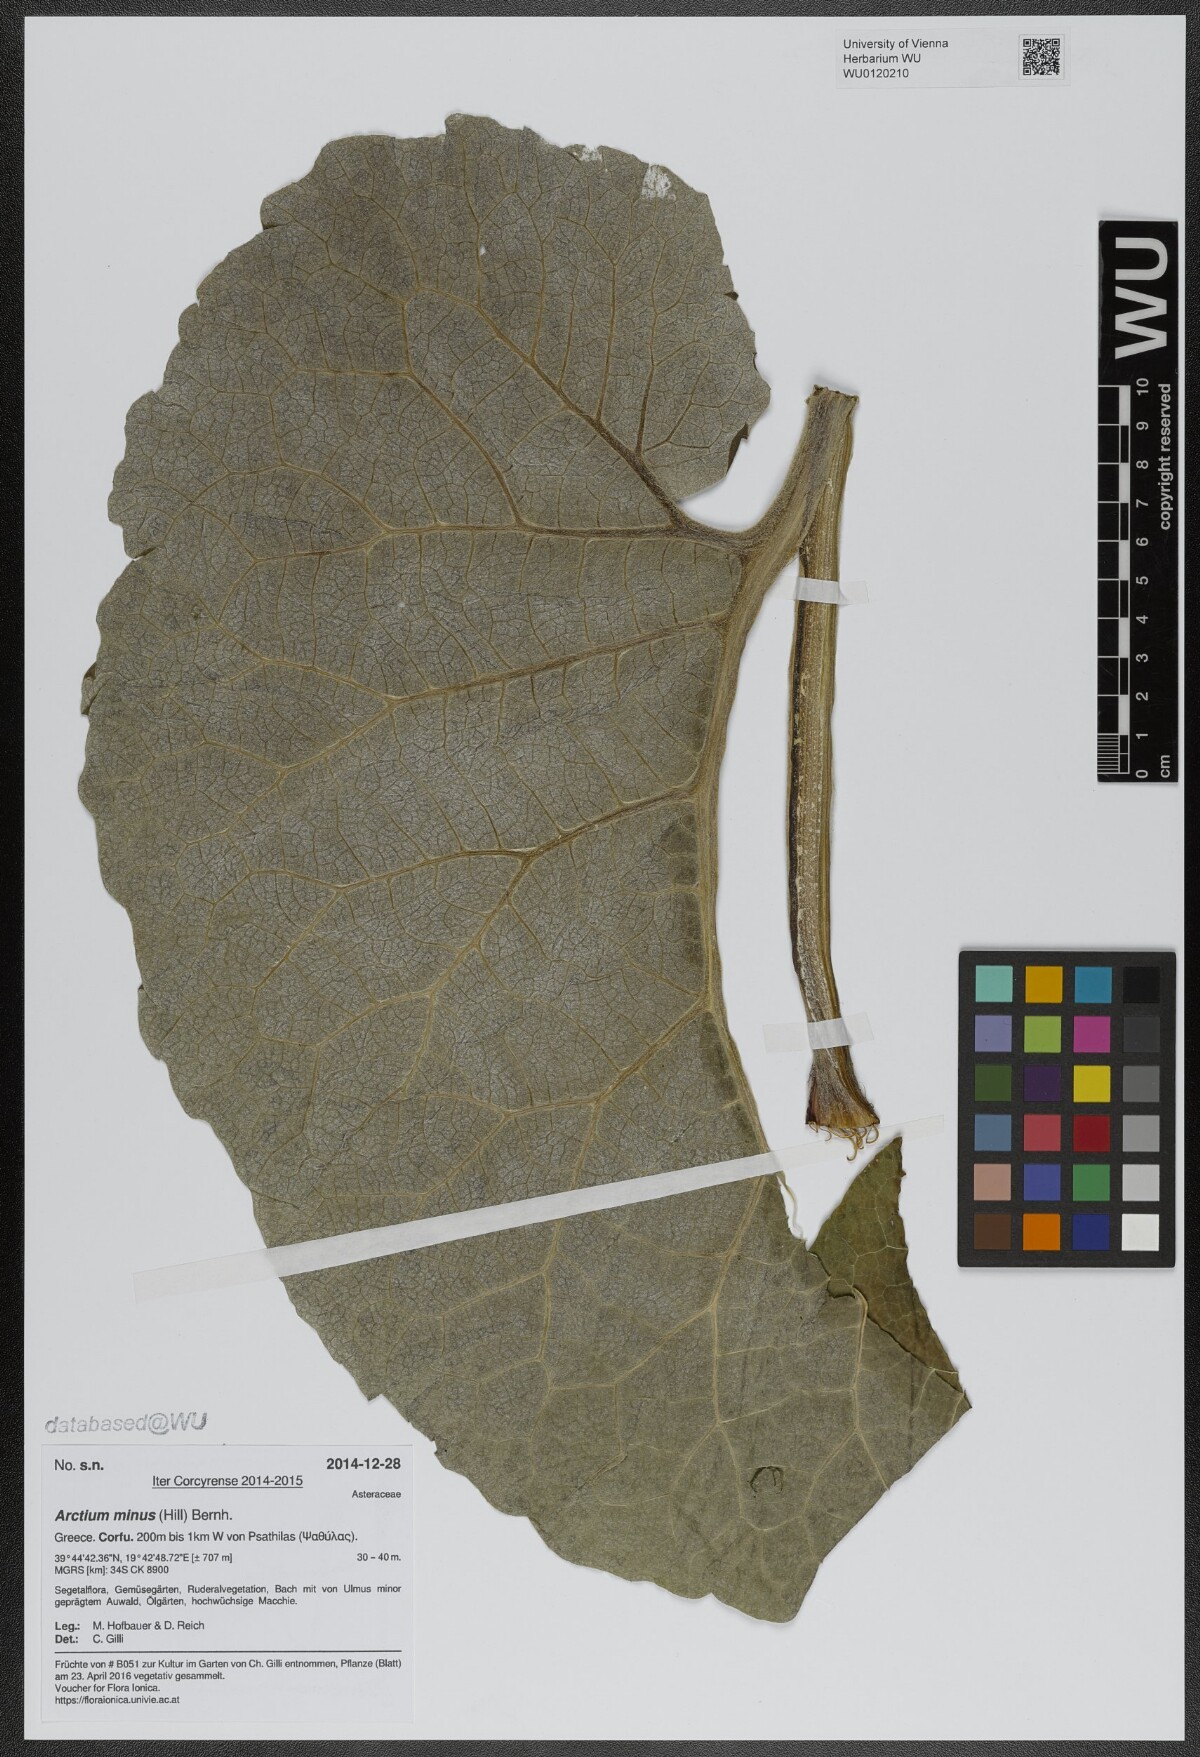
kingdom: Plantae
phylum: Tracheophyta
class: Magnoliopsida
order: Asterales
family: Asteraceae
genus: Arctium
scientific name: Arctium minus
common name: Lesser burdock
